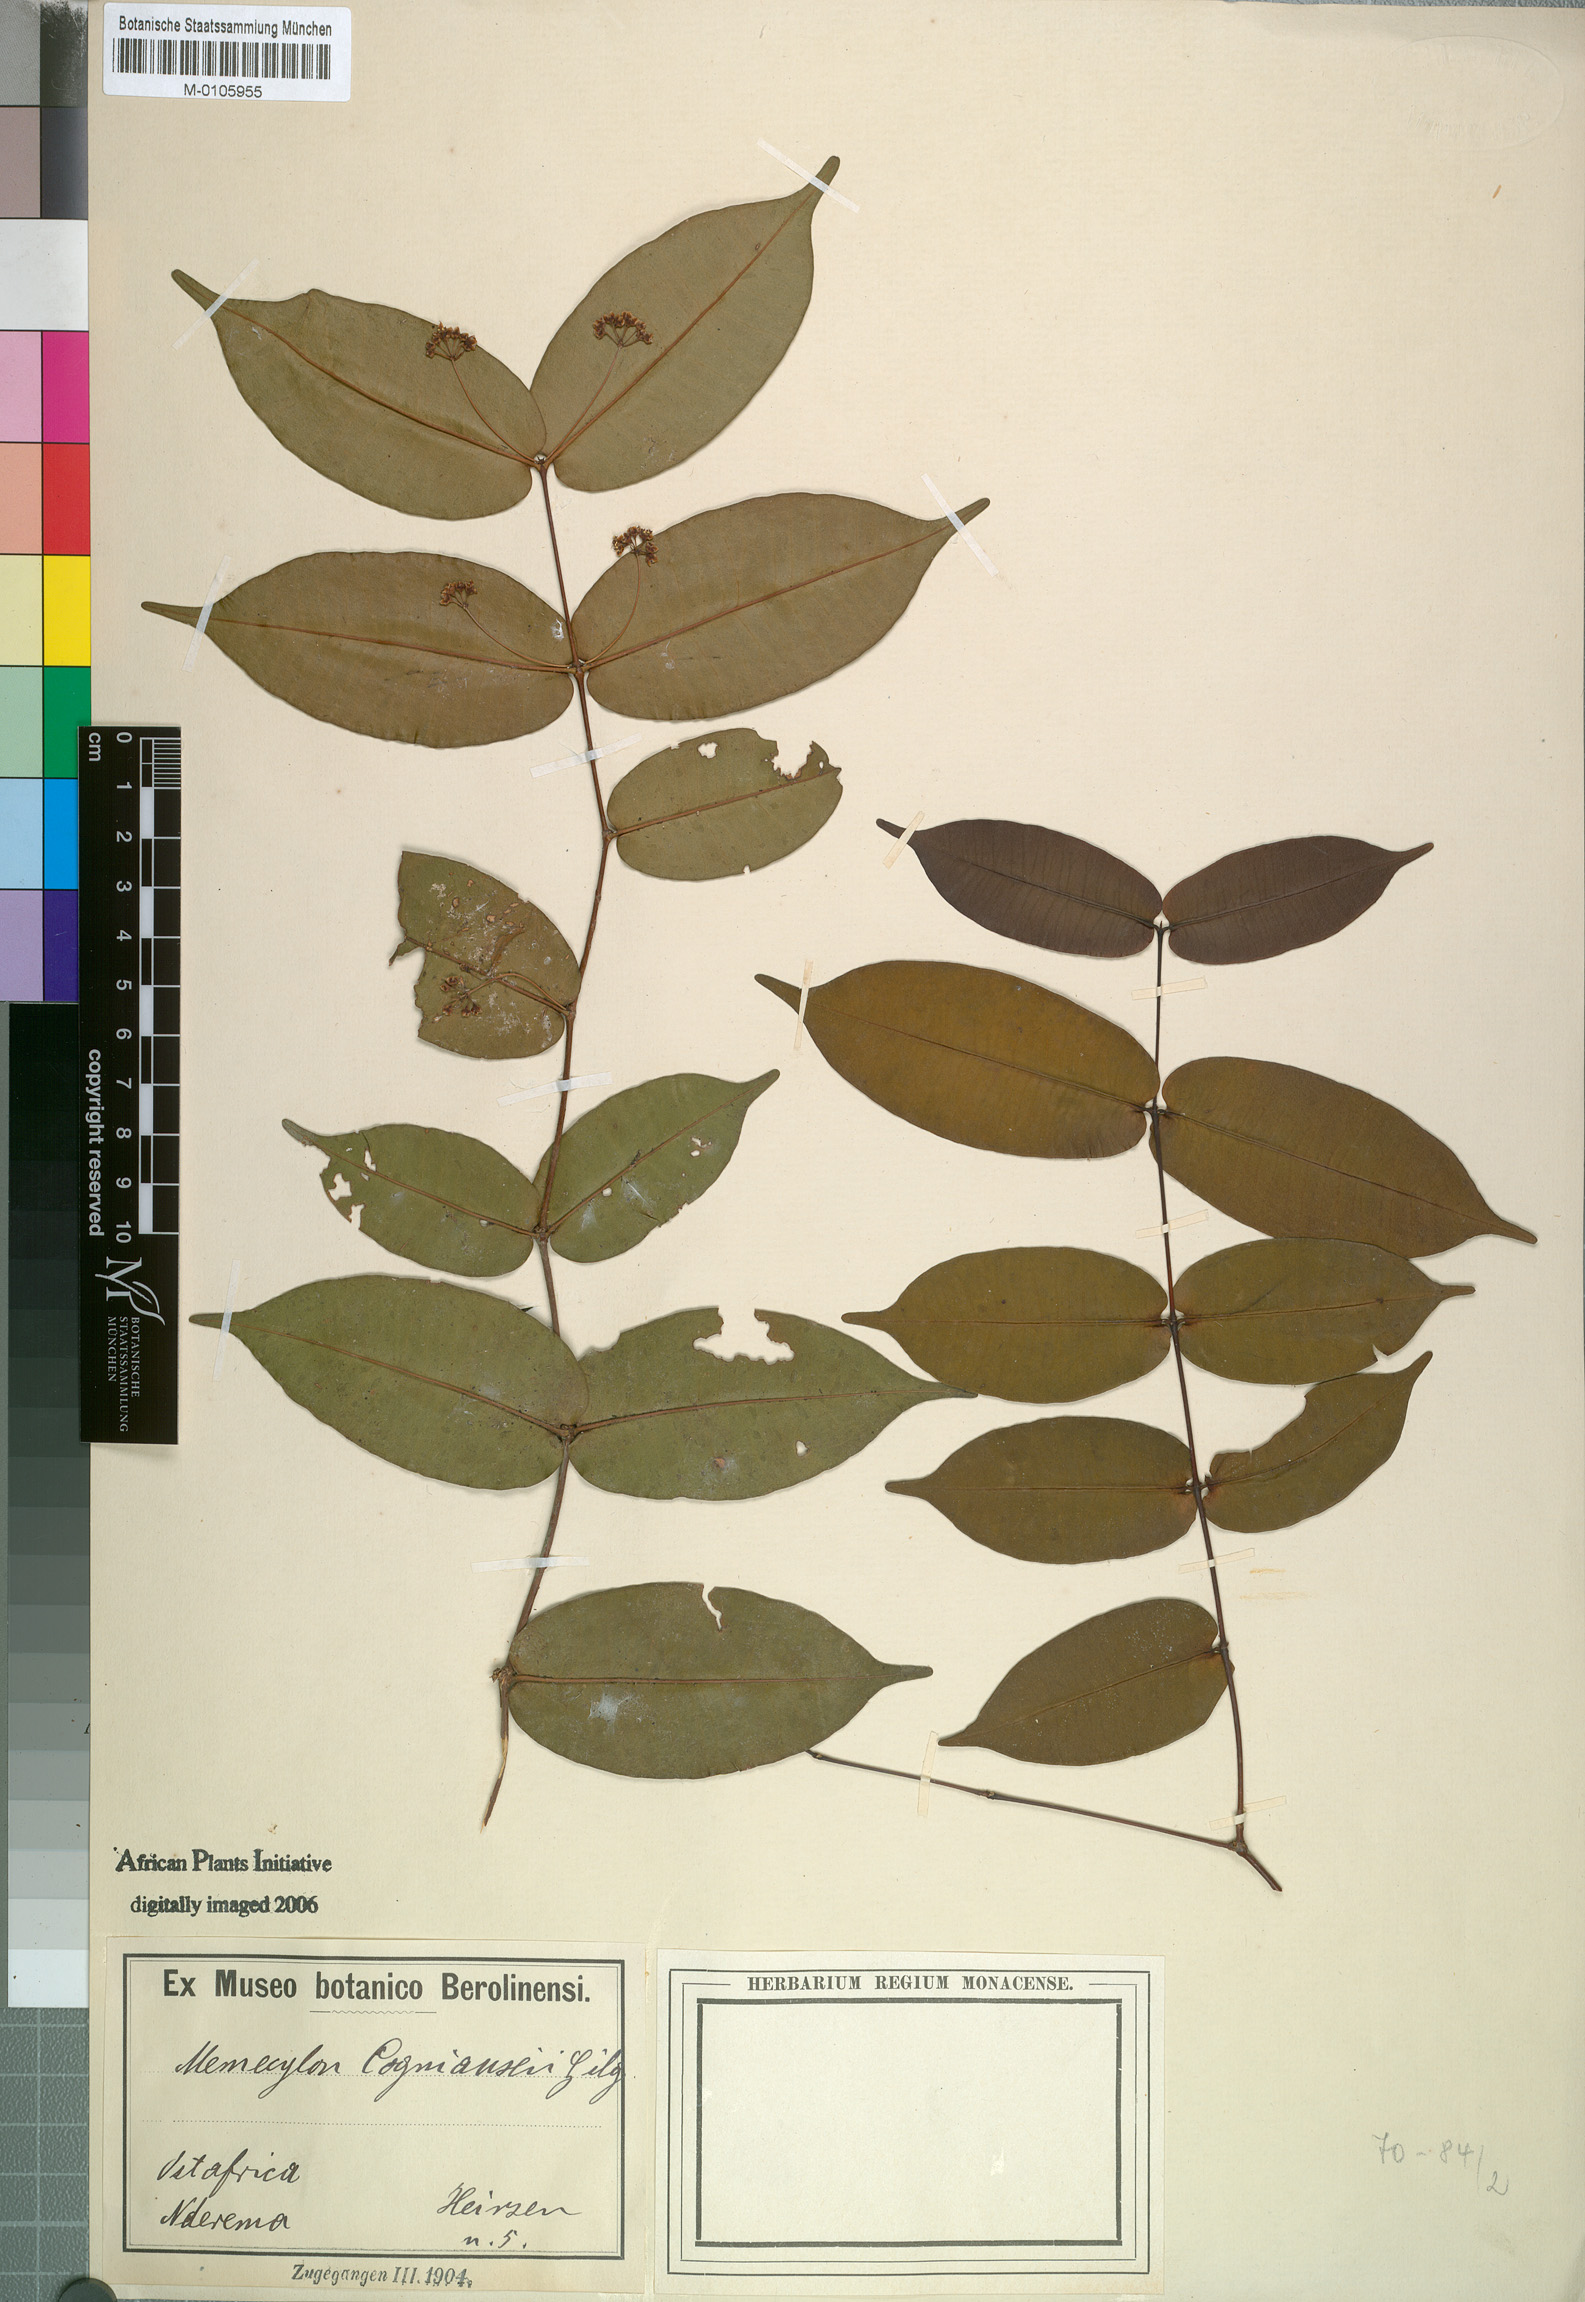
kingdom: Plantae
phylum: Tracheophyta
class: Magnoliopsida
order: Myrtales
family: Melastomataceae
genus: Memecylon
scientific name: Memecylon cogniauxii
